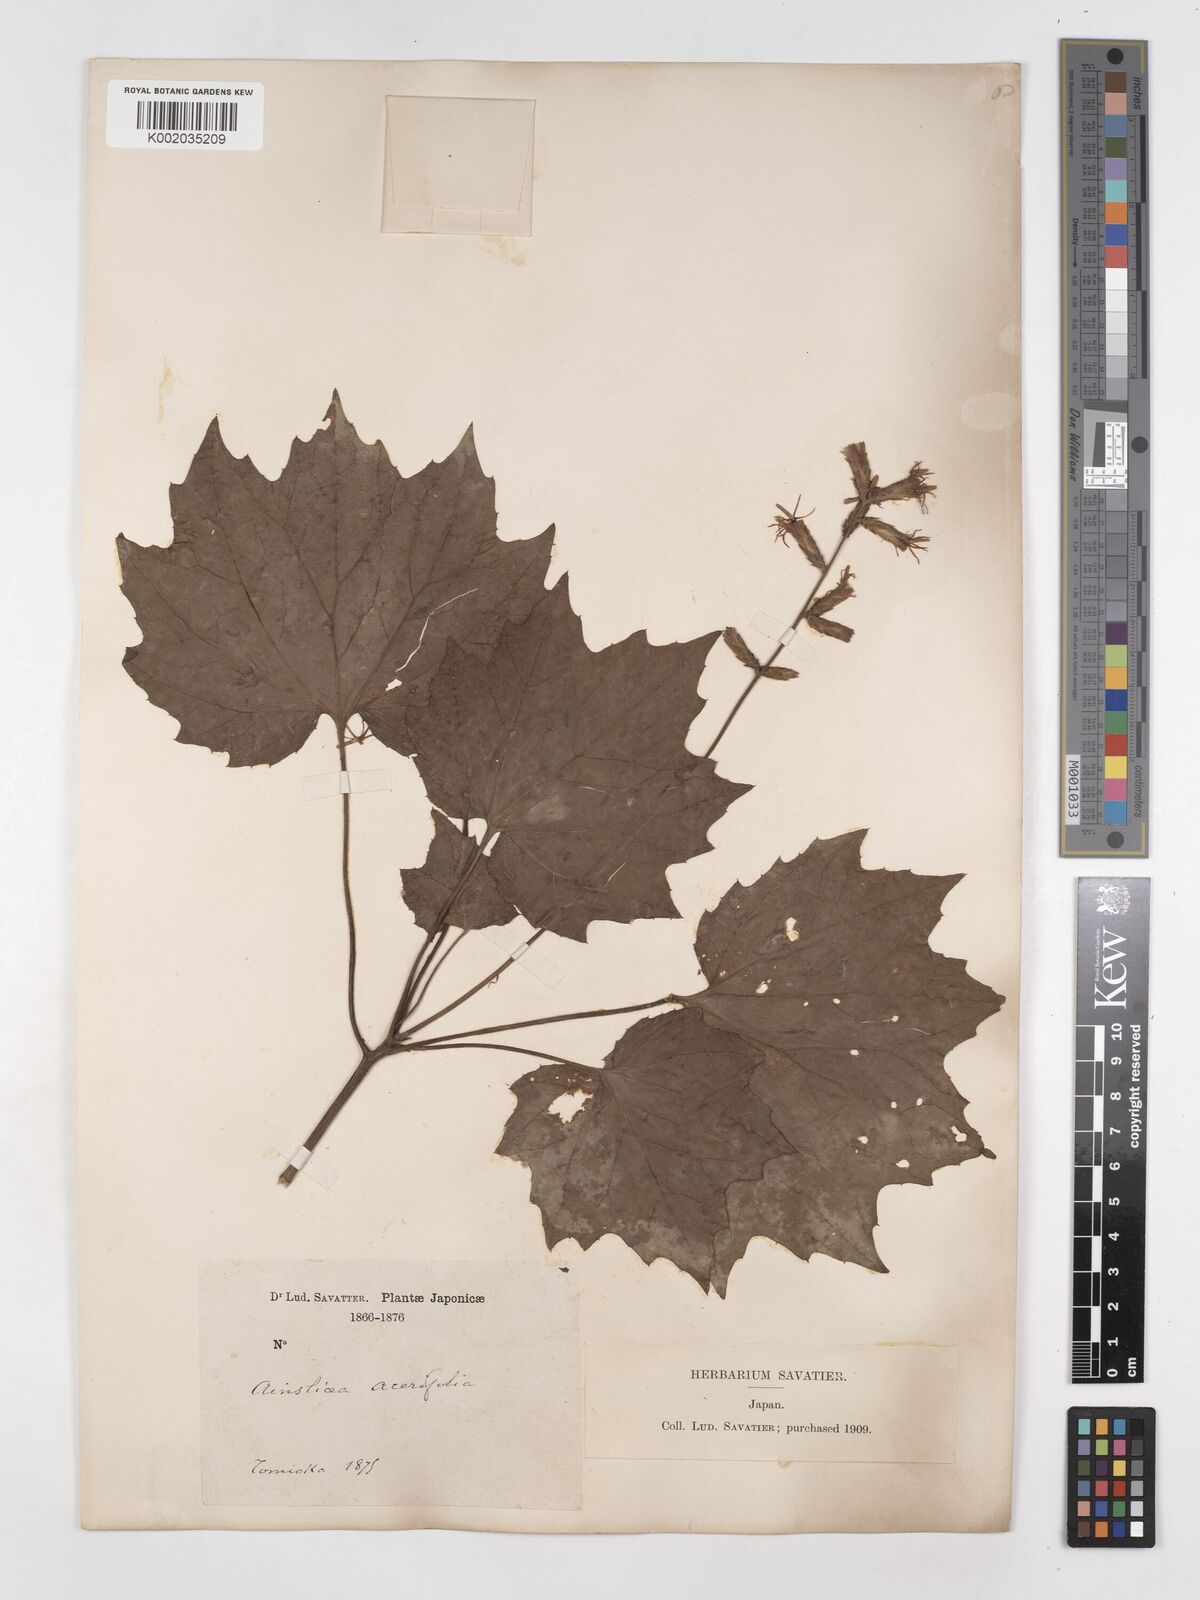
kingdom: Plantae
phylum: Tracheophyta
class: Magnoliopsida
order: Asterales
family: Asteraceae
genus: Ainsliaea
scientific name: Ainsliaea acerifolia
